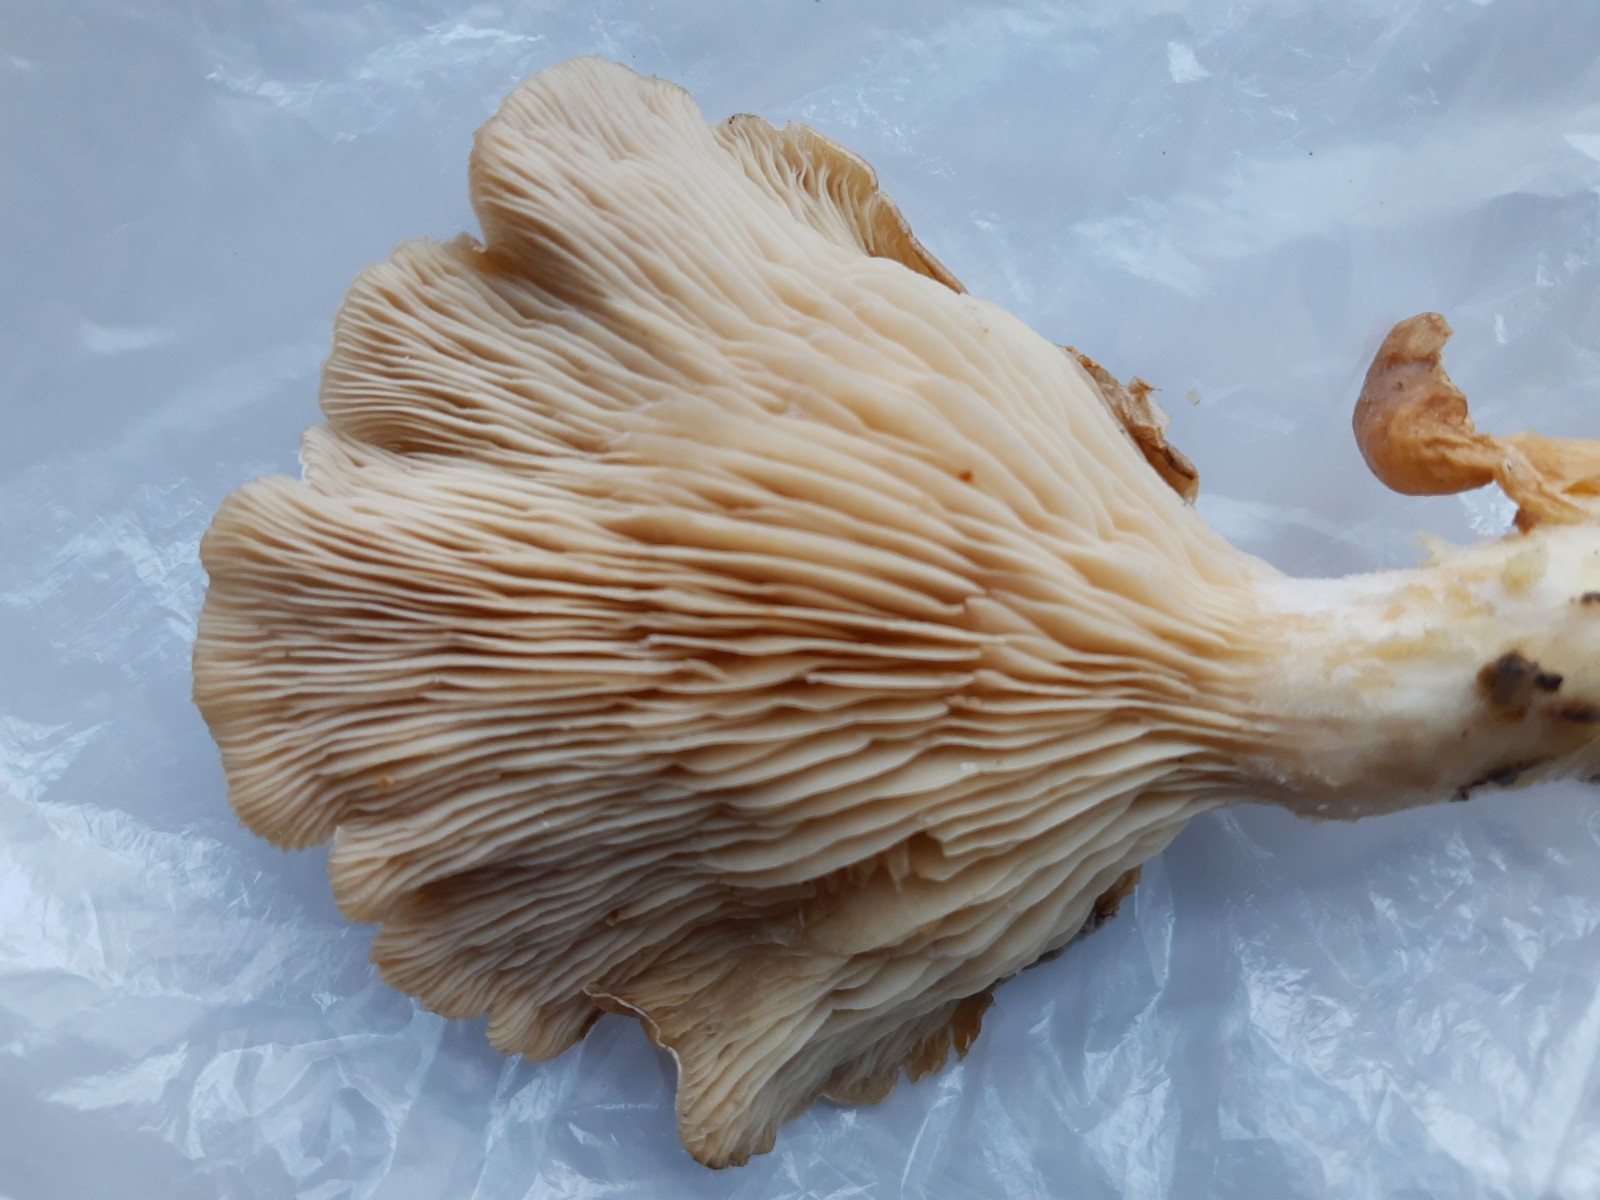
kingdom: Fungi
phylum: Basidiomycota
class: Agaricomycetes
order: Agaricales
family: Pleurotaceae
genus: Pleurotus
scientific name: Pleurotus
